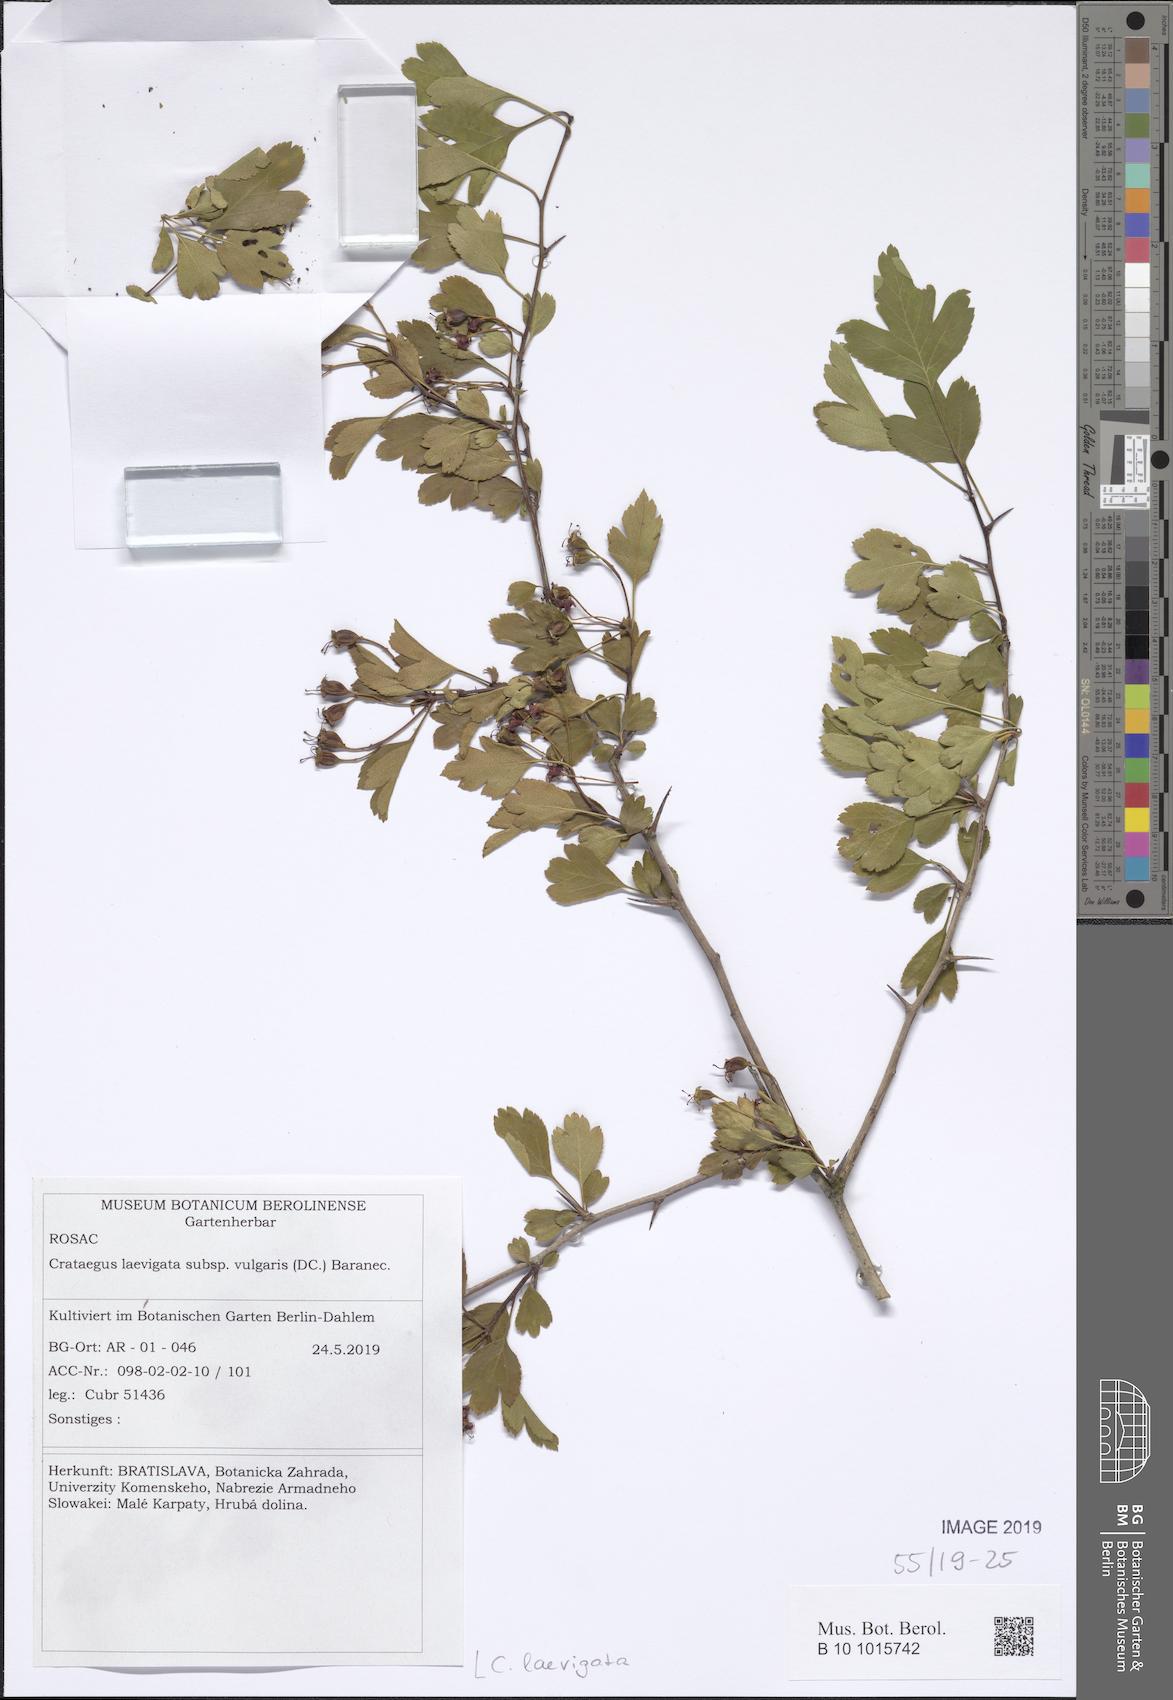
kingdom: Plantae
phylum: Tracheophyta
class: Magnoliopsida
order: Rosales
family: Rosaceae
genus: Crataegus
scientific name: Crataegus laevigata
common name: Midland hawthorn
